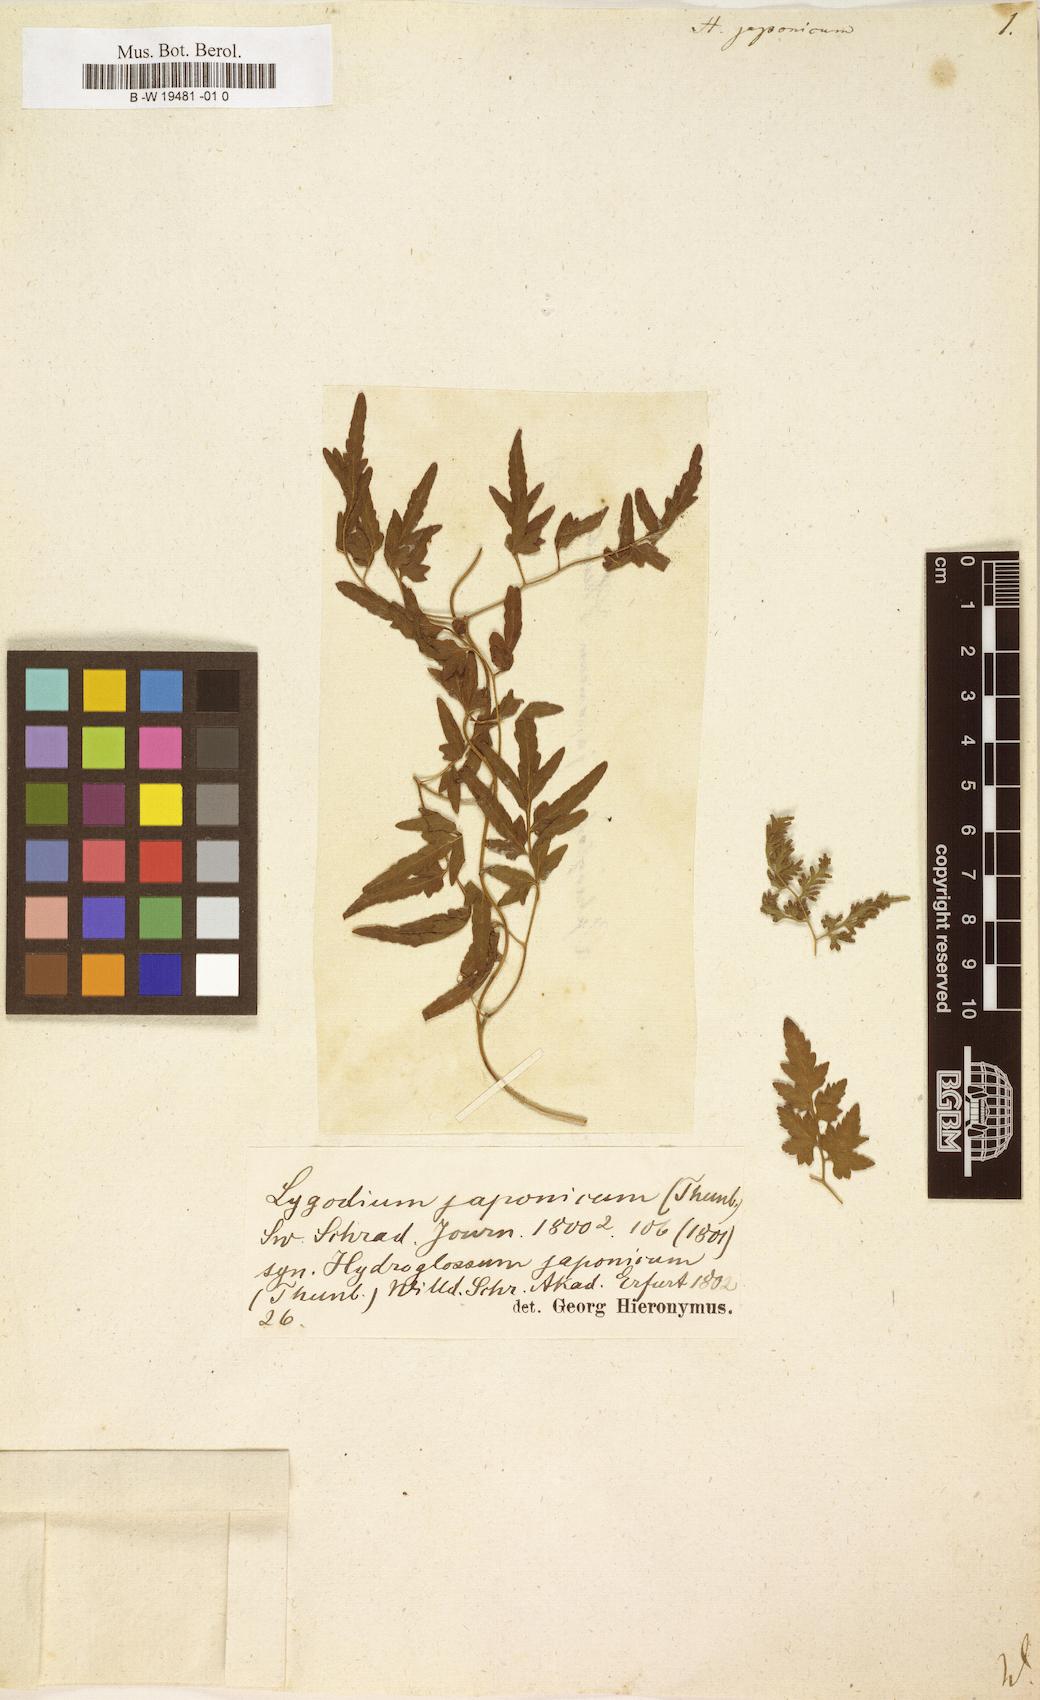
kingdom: Plantae
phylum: Tracheophyta
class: Polypodiopsida
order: Schizaeales
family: Lygodiaceae
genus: Lygodium
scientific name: Lygodium japonicum
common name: Japanese climbing fern
